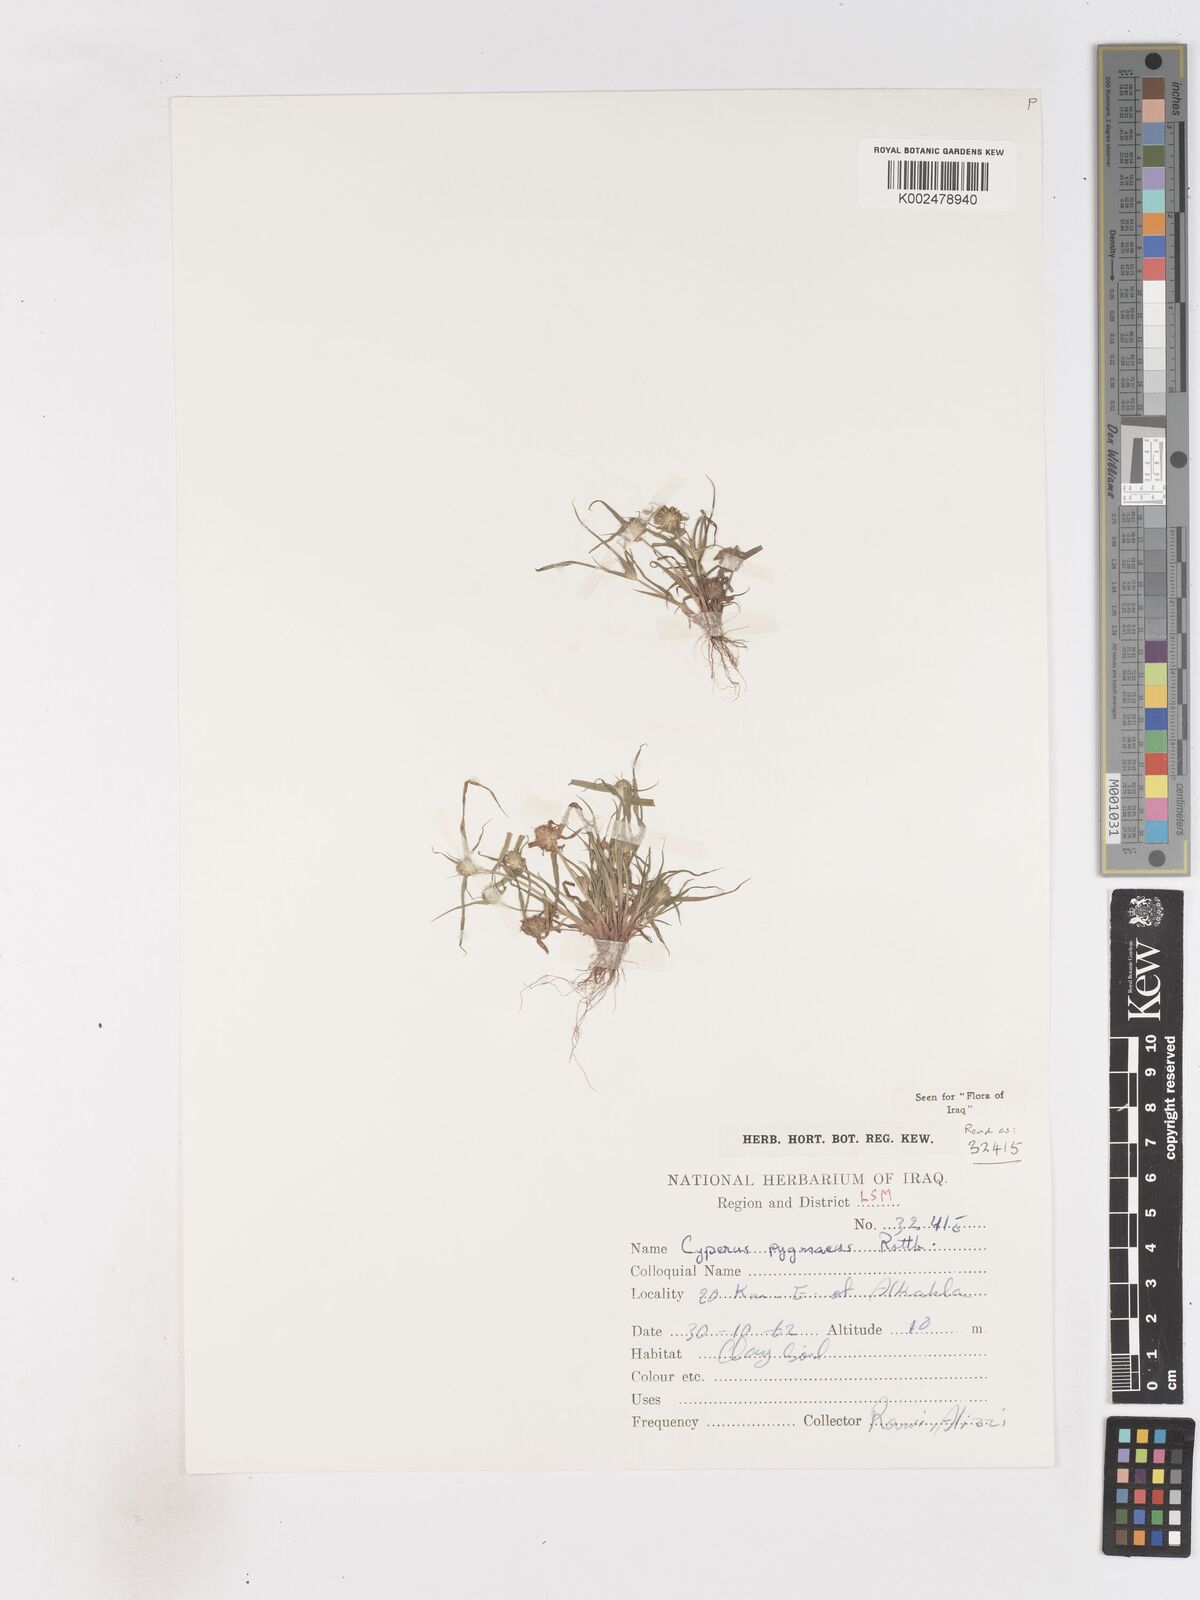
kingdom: Plantae
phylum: Tracheophyta
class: Liliopsida
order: Poales
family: Cyperaceae
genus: Cyperus
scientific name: Cyperus michelianus
